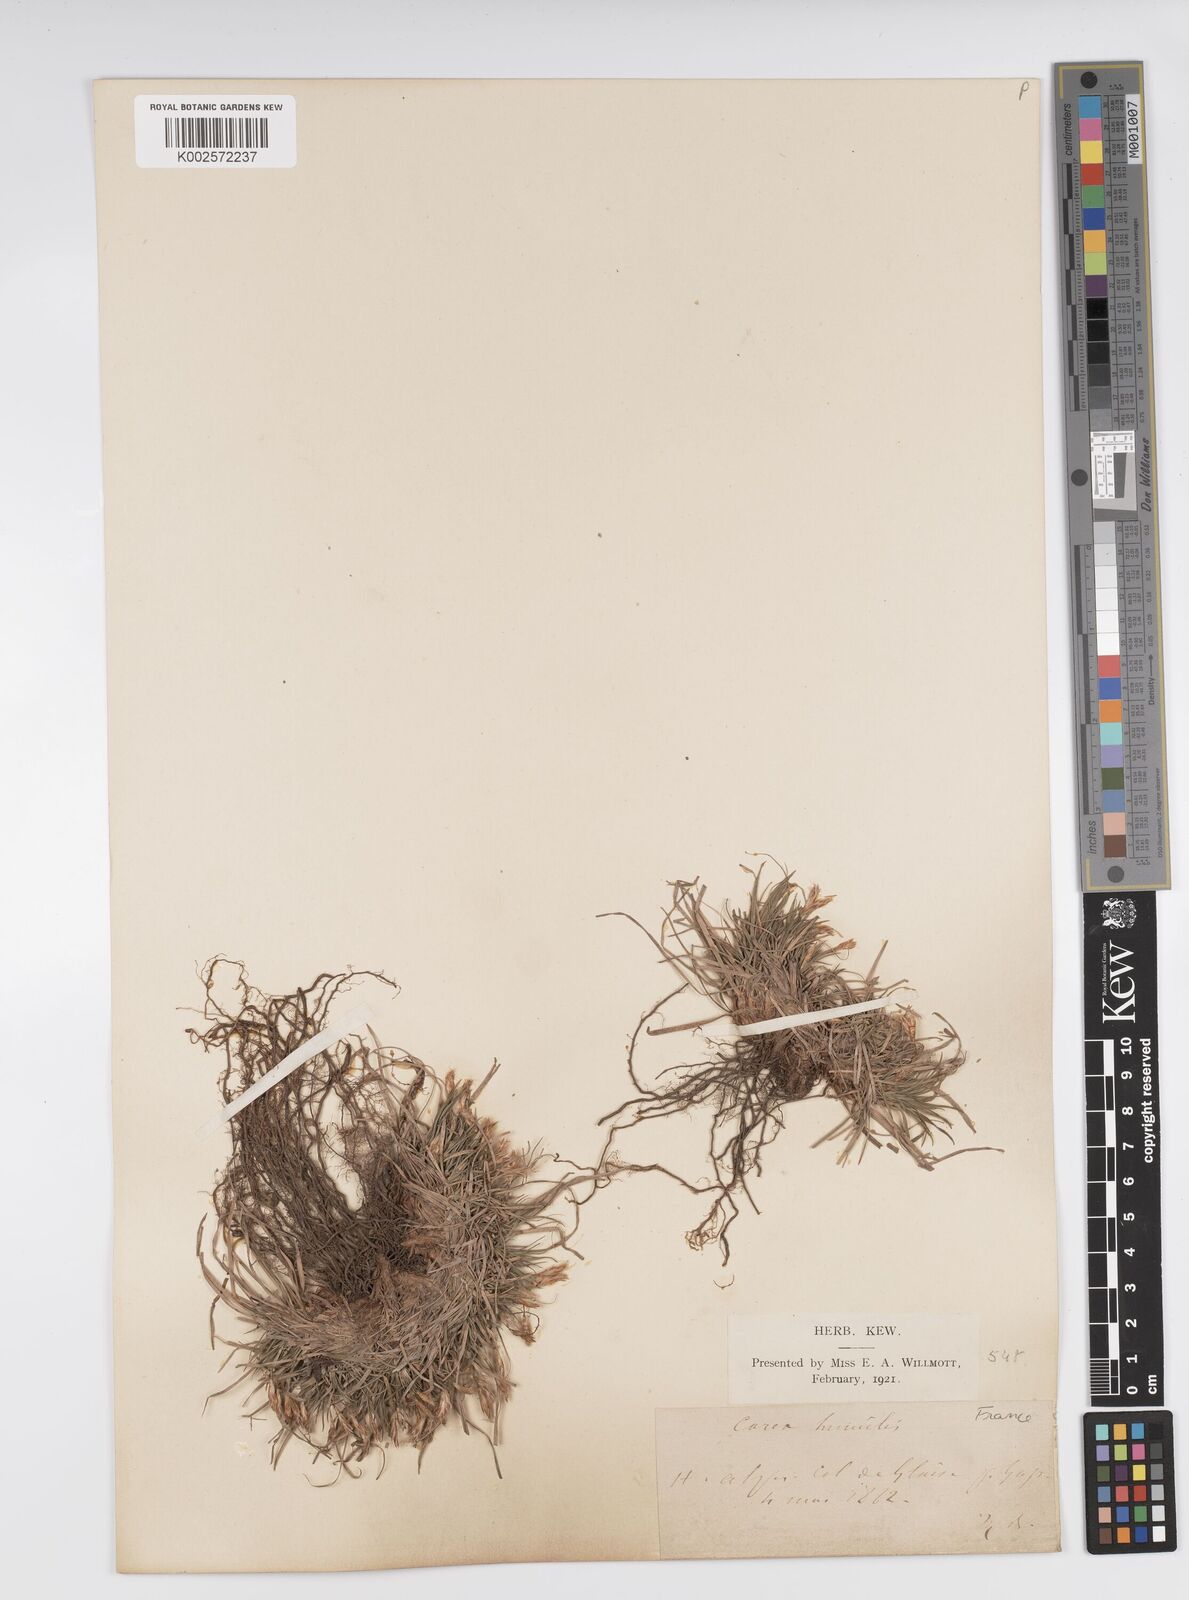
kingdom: Plantae
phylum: Tracheophyta
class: Liliopsida
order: Poales
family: Cyperaceae
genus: Carex
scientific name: Carex humilis
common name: Dwarf sedge
